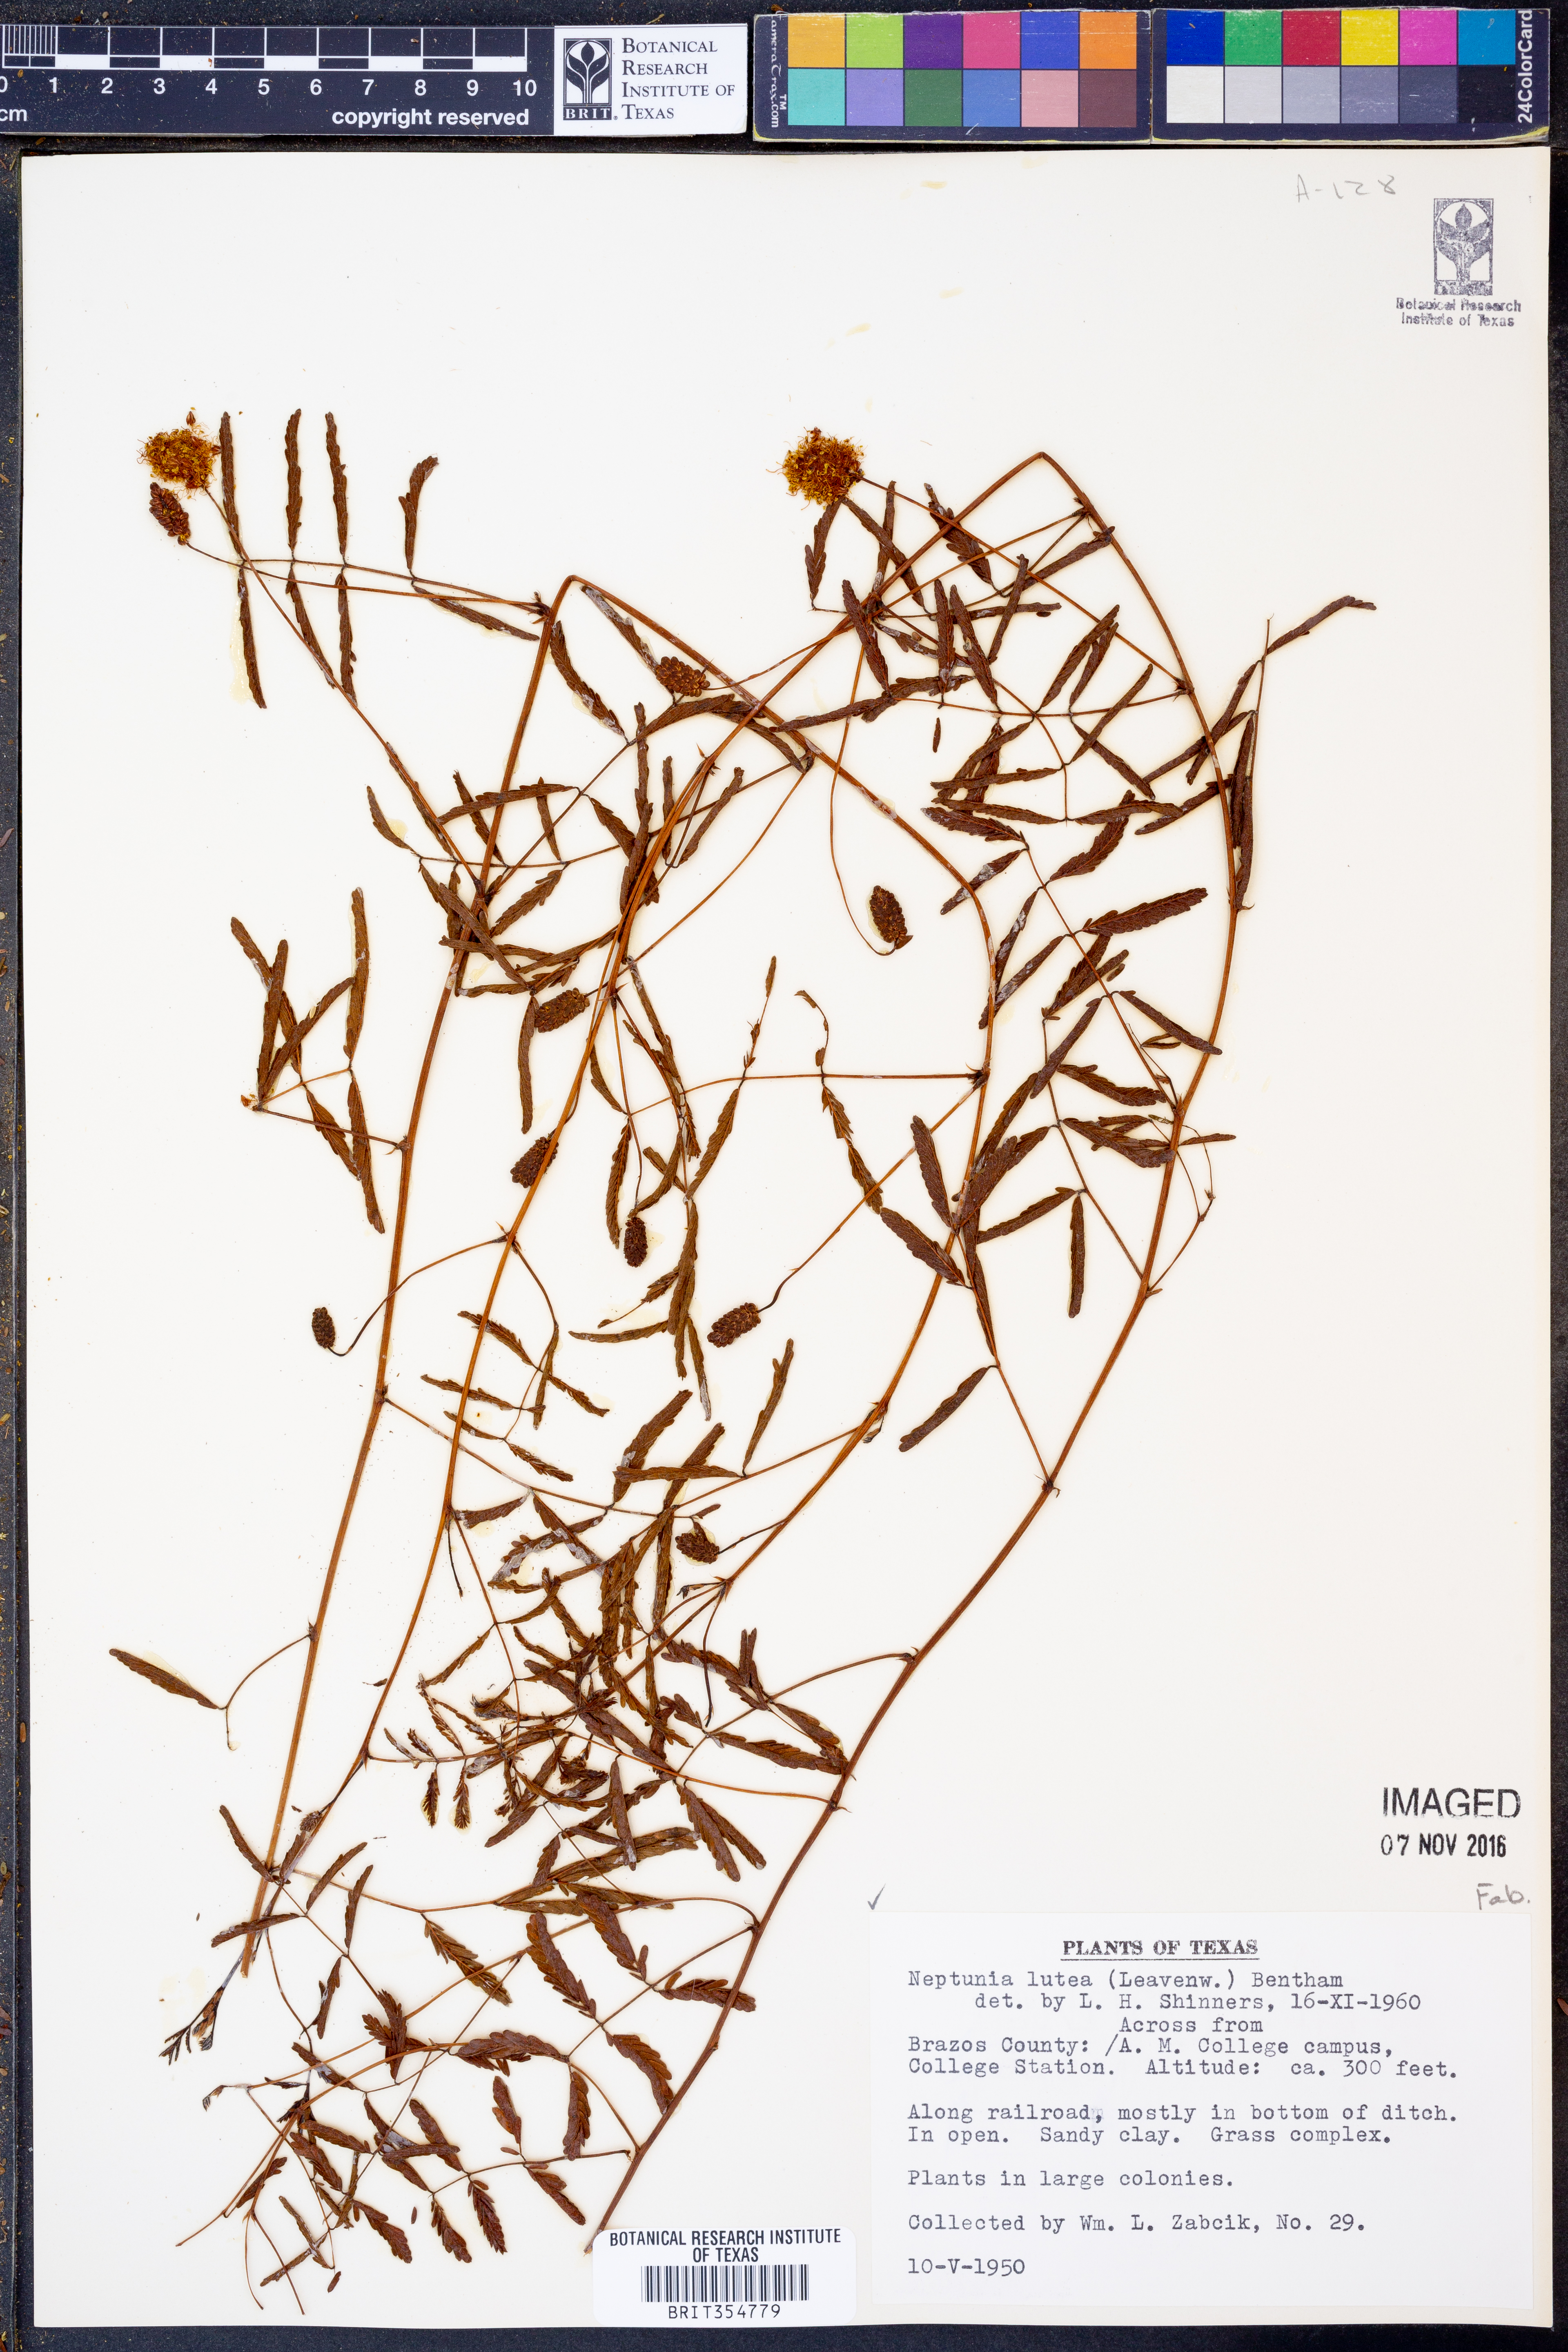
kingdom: Plantae
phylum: Tracheophyta
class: Magnoliopsida
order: Fabales
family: Fabaceae
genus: Neptunia
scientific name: Neptunia lutea
